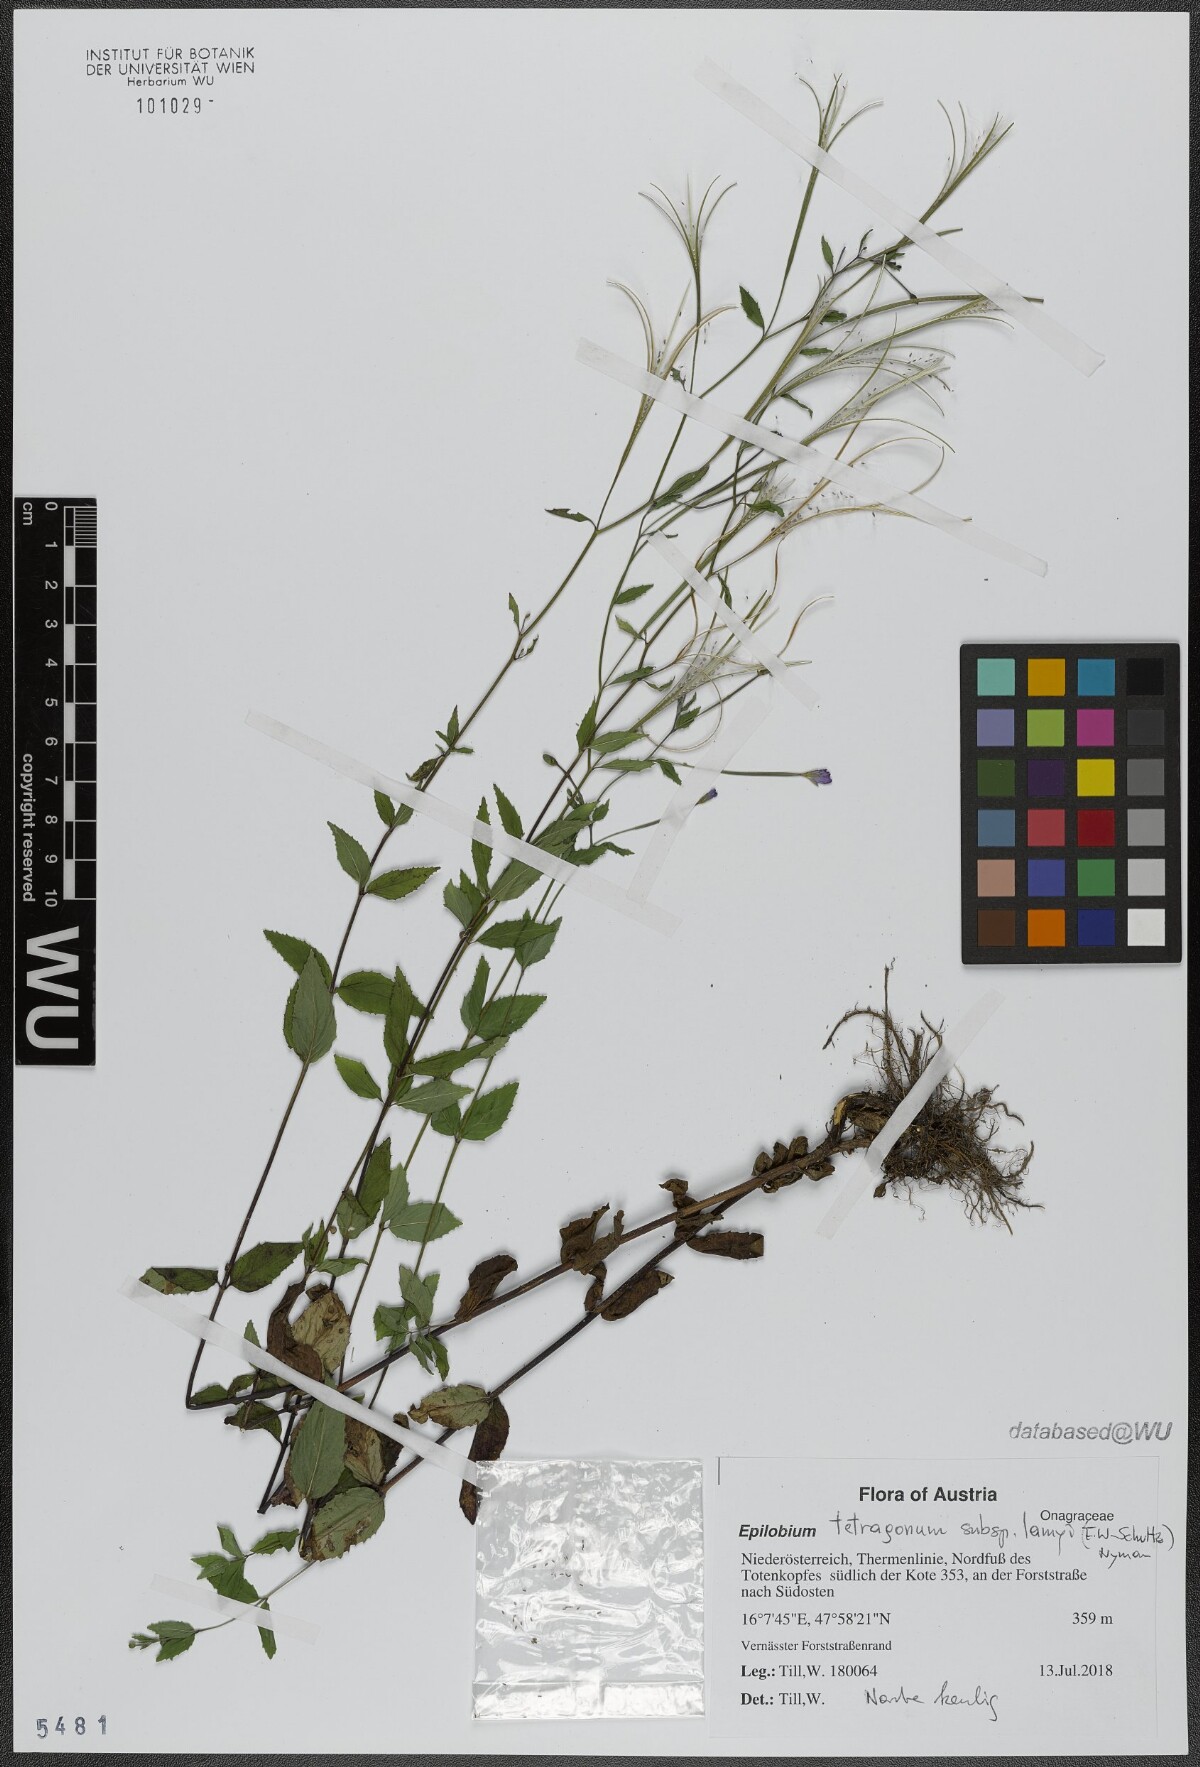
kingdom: Plantae
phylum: Tracheophyta
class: Magnoliopsida
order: Myrtales
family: Onagraceae
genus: Epilobium
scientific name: Epilobium ciliatum
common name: American willowherb
